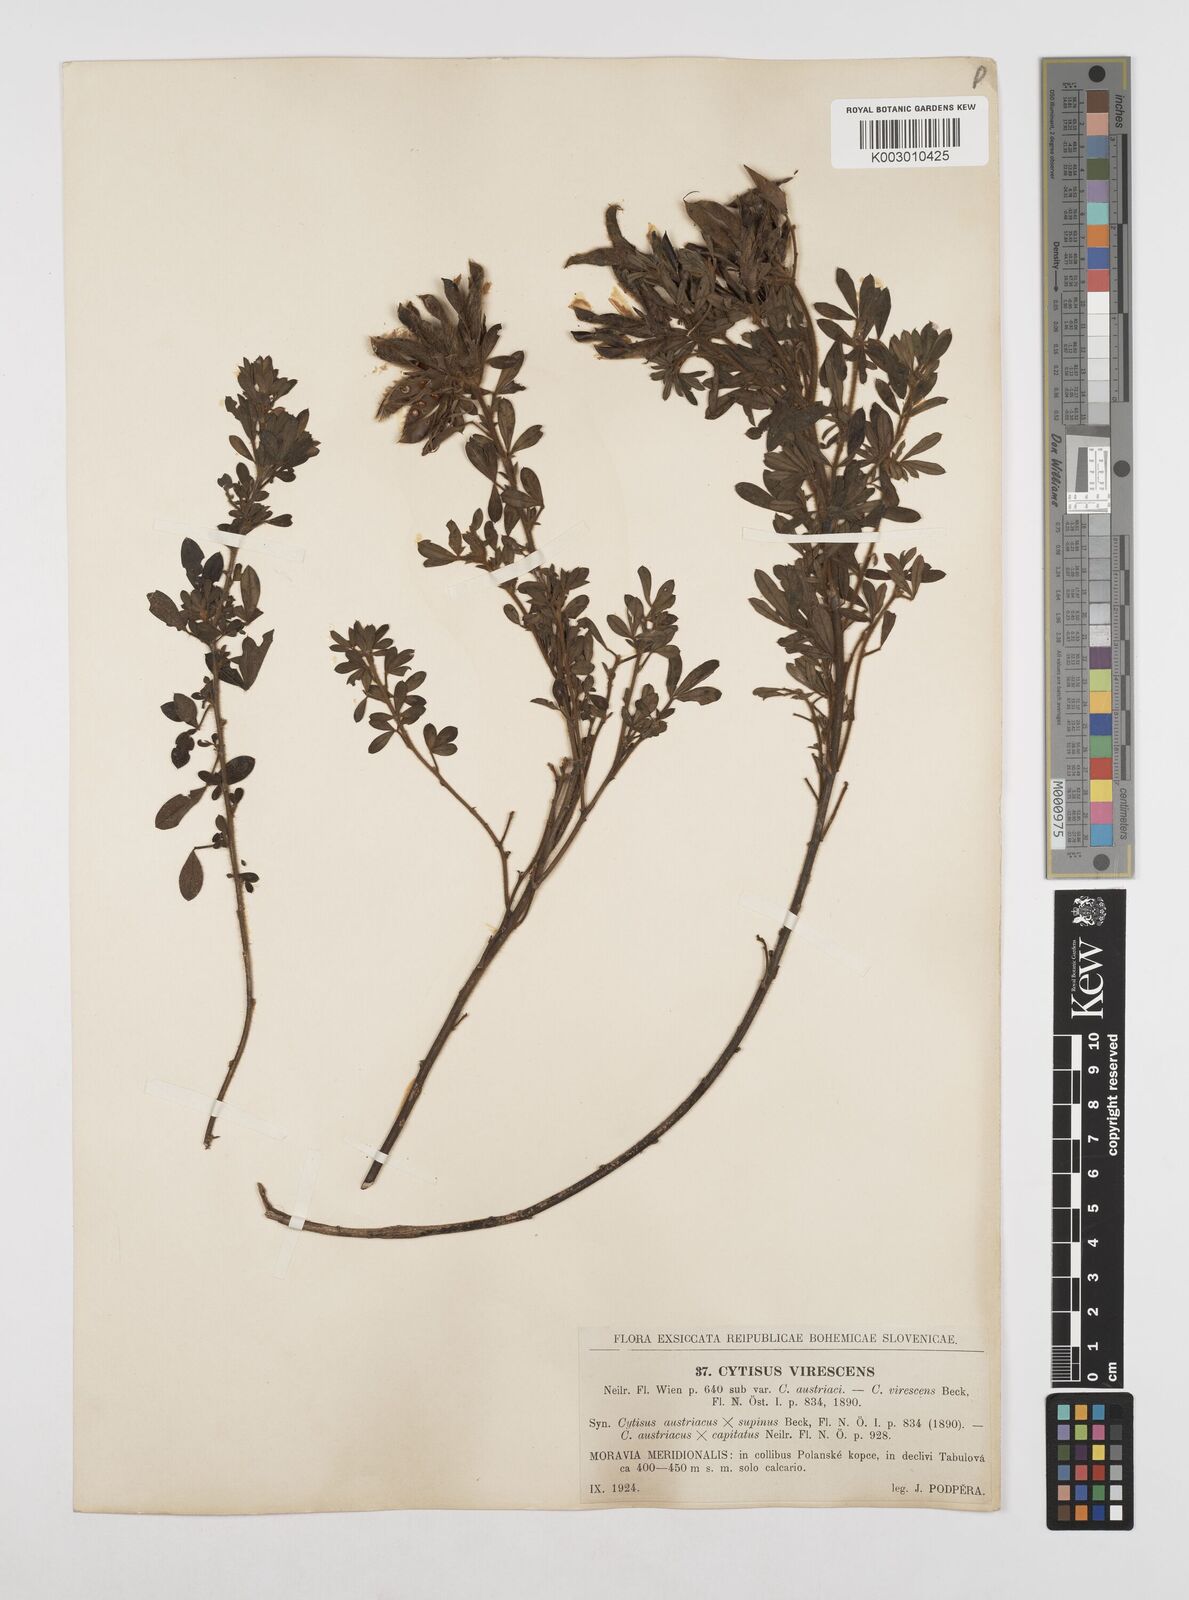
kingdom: Plantae
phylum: Tracheophyta
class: Magnoliopsida
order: Fabales
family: Fabaceae
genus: Chamaecytisus
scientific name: Chamaecytisus austriacus
